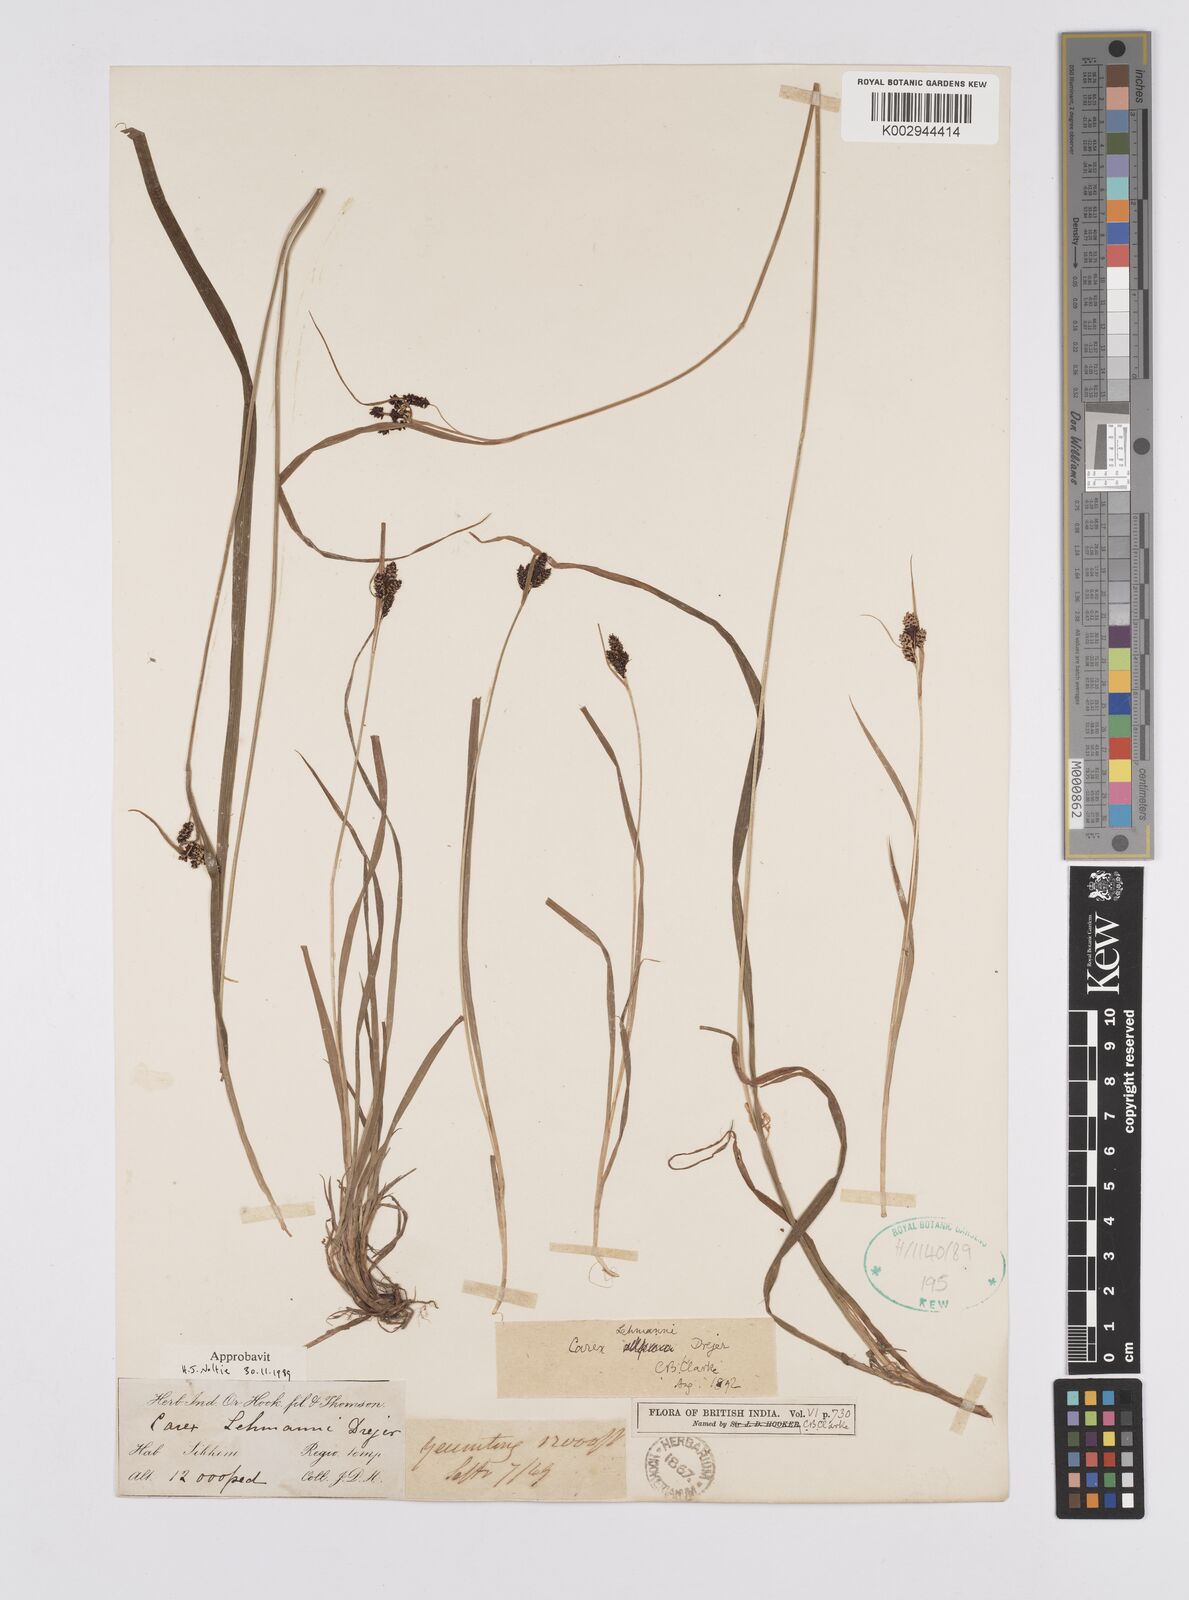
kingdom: Plantae
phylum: Tracheophyta
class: Liliopsida
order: Poales
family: Cyperaceae
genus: Carex
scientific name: Carex lehmannii
